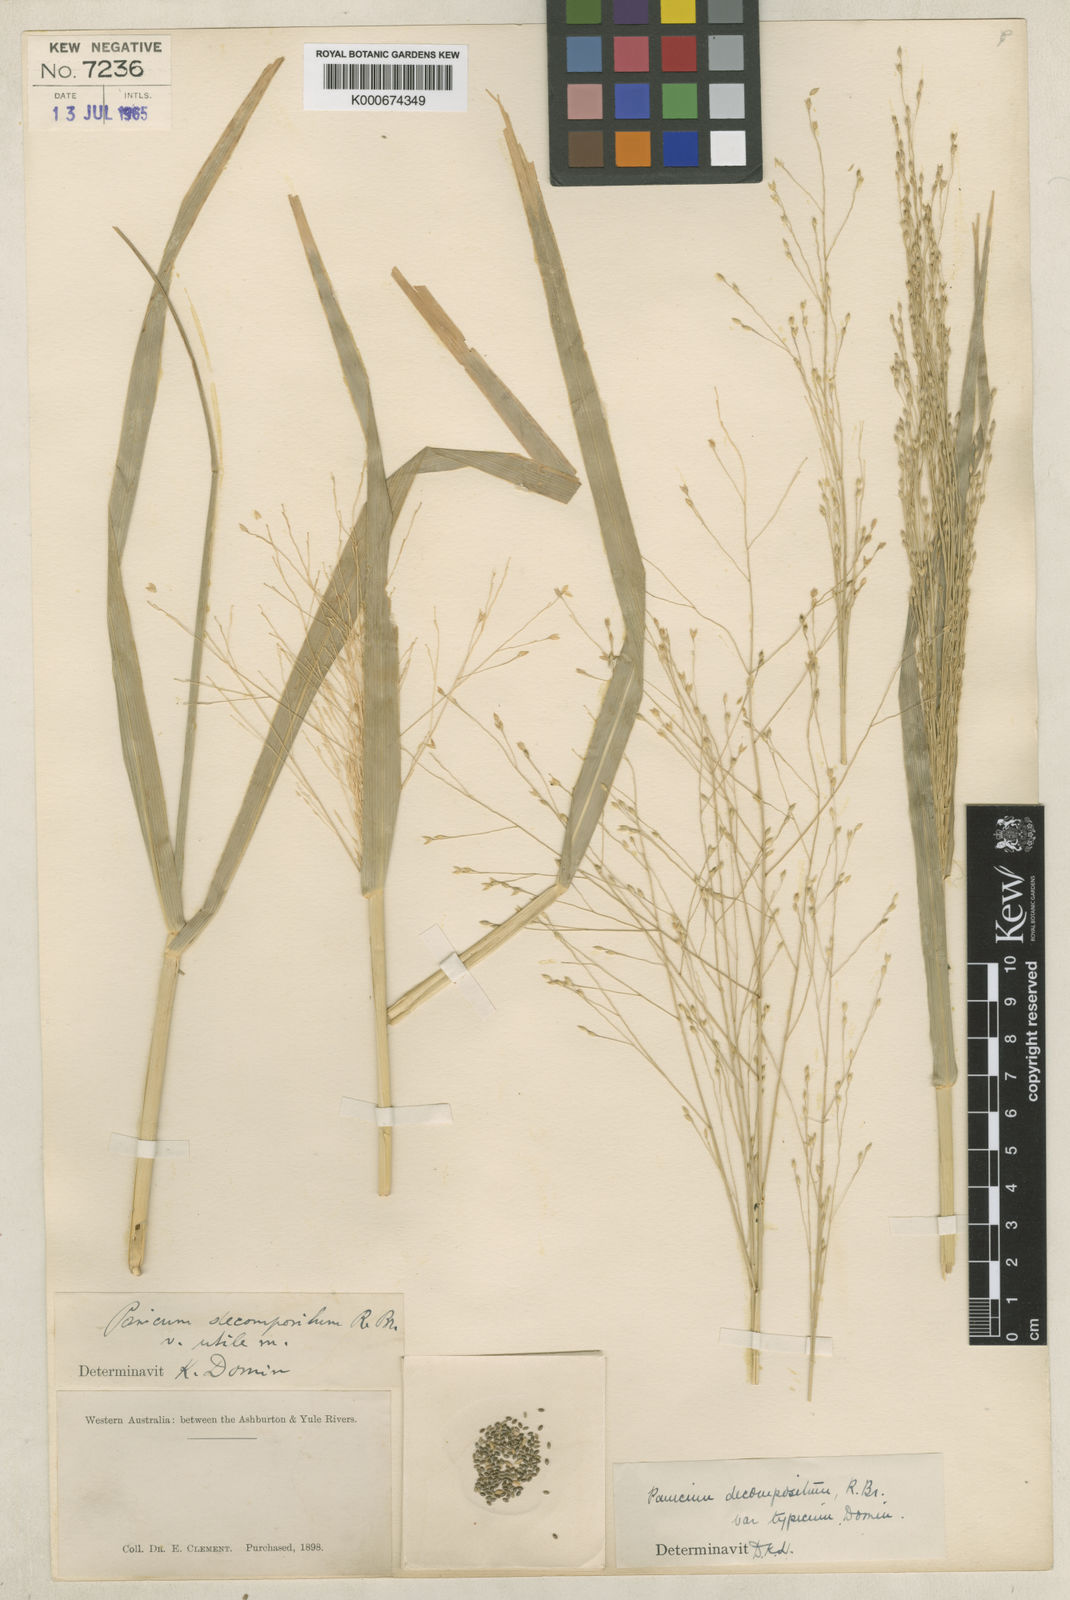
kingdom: Plantae
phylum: Tracheophyta
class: Liliopsida
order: Poales
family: Poaceae
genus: Panicum
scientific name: Panicum decompositum
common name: Australian millet
